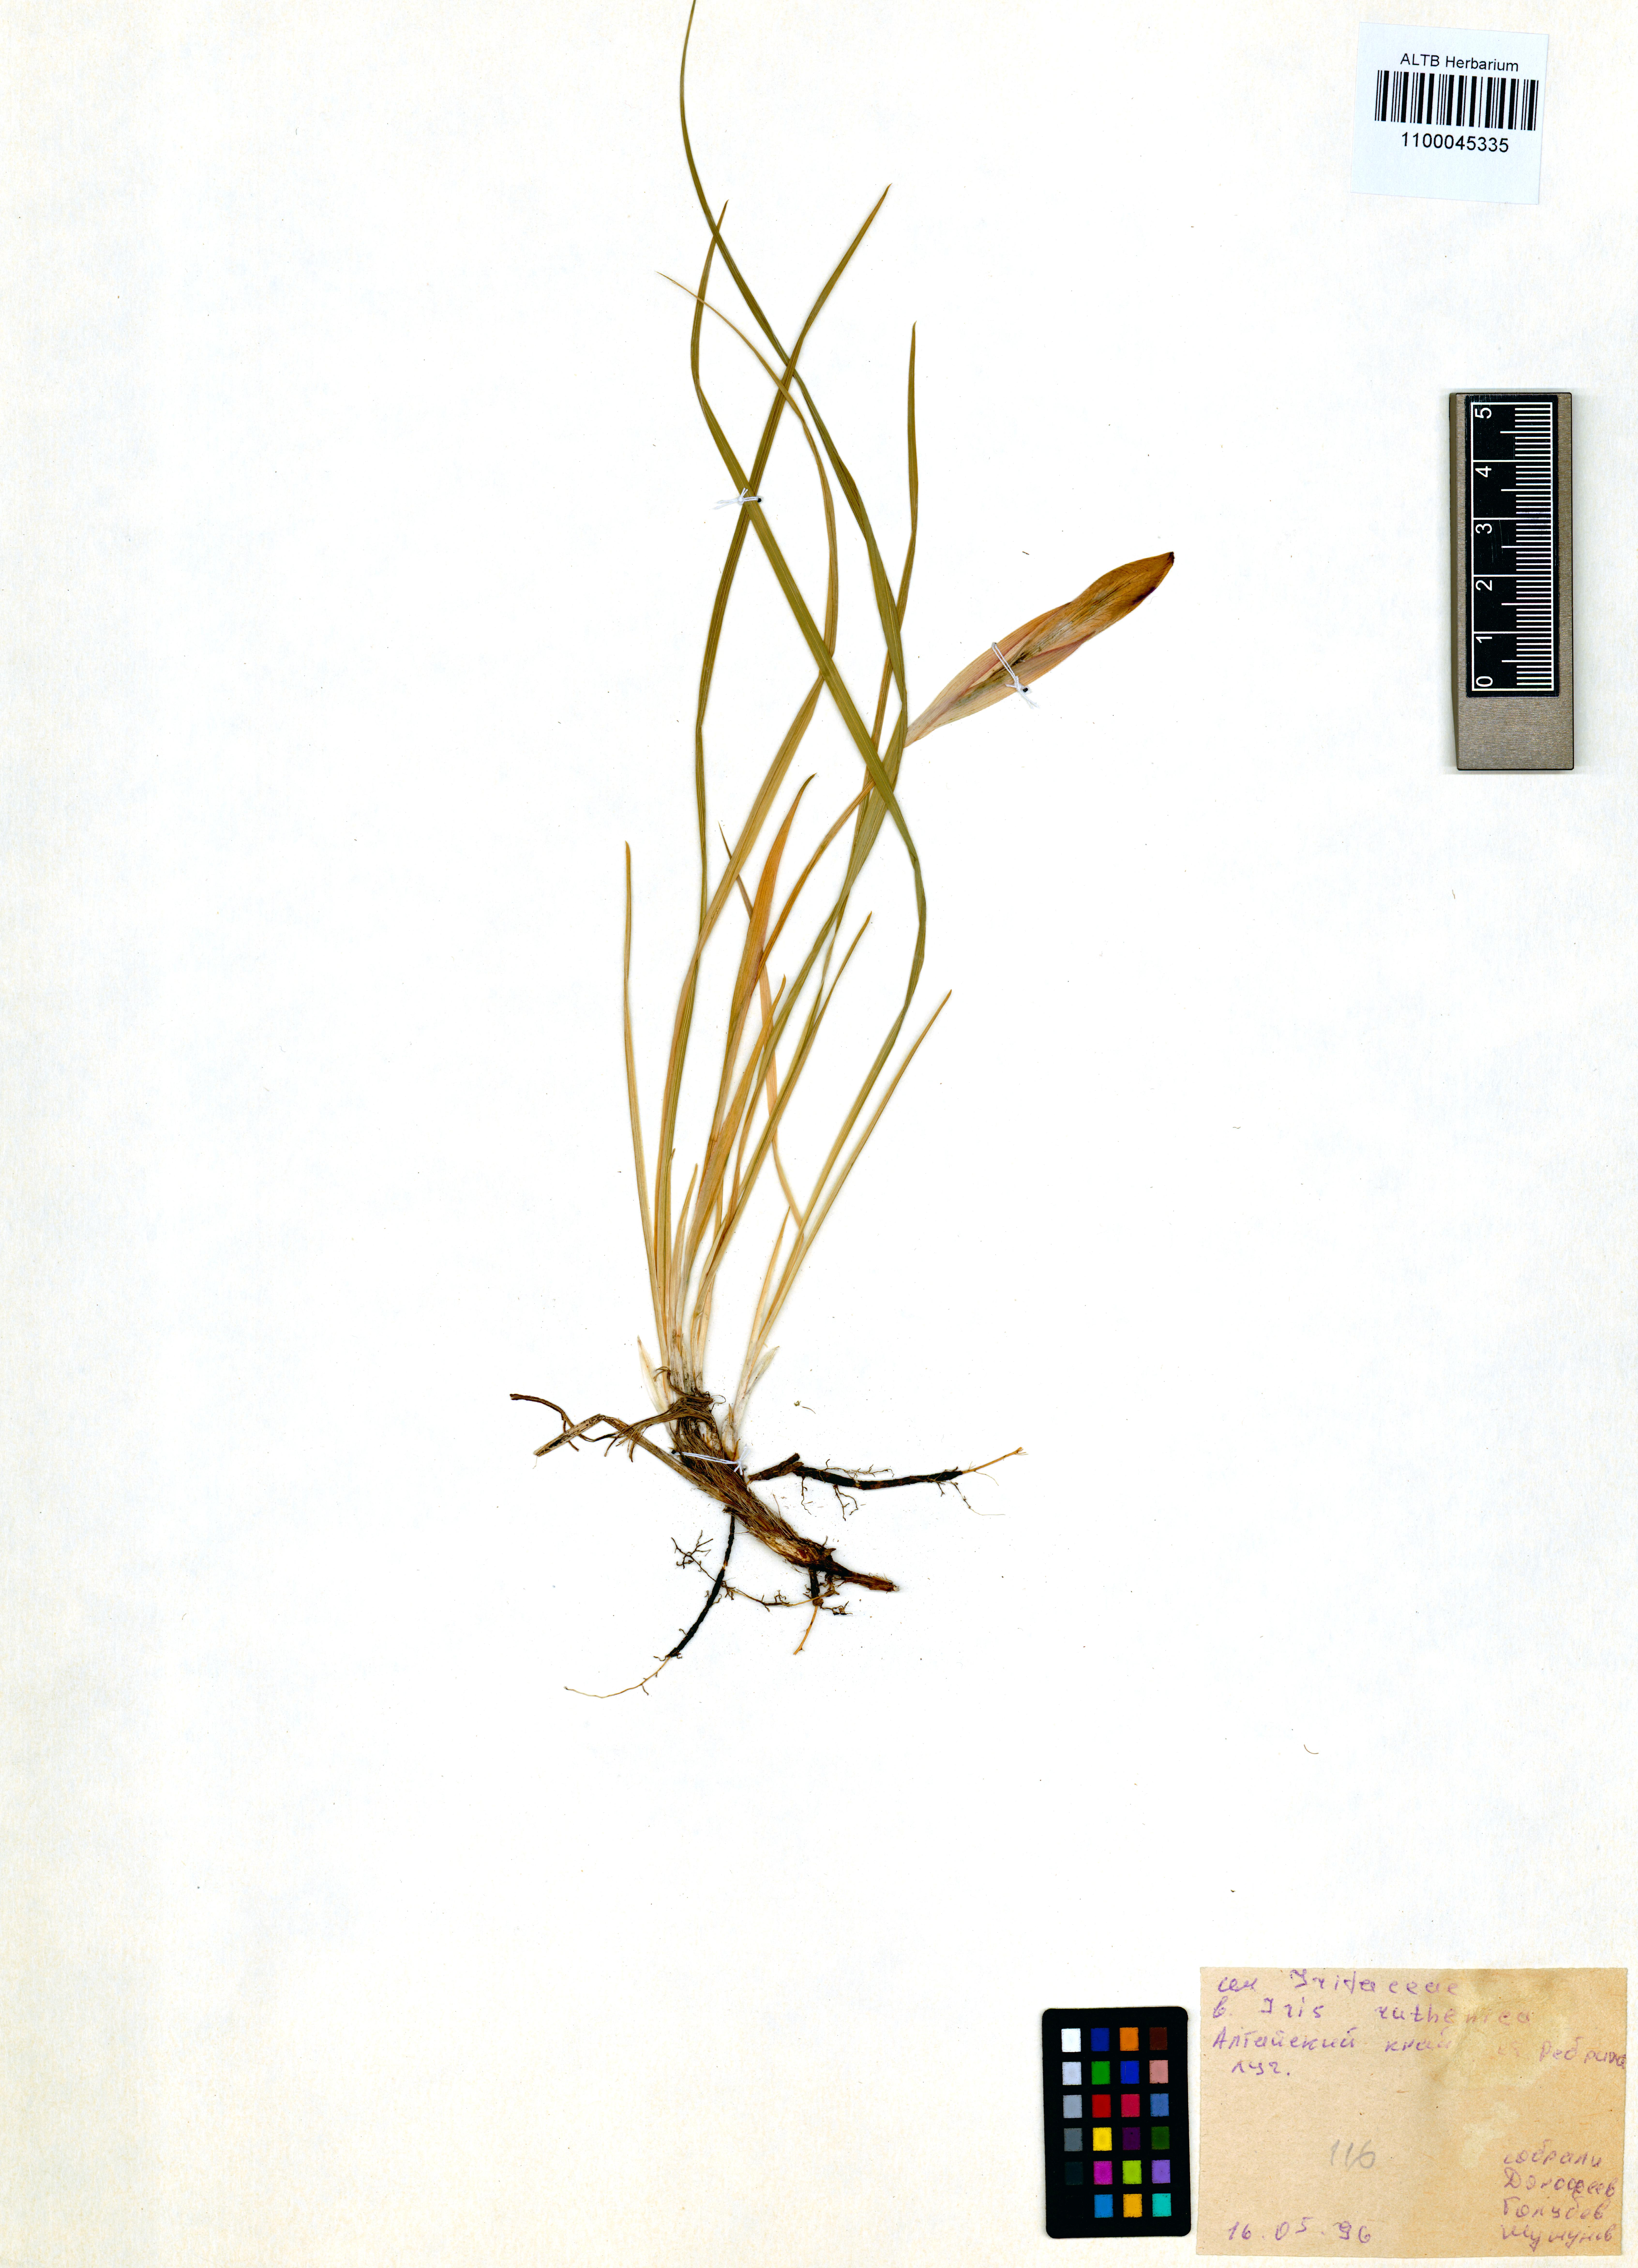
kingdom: Plantae
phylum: Tracheophyta
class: Liliopsida
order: Asparagales
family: Iridaceae
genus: Iris
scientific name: Iris ruthenica
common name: Purple-bract iris
